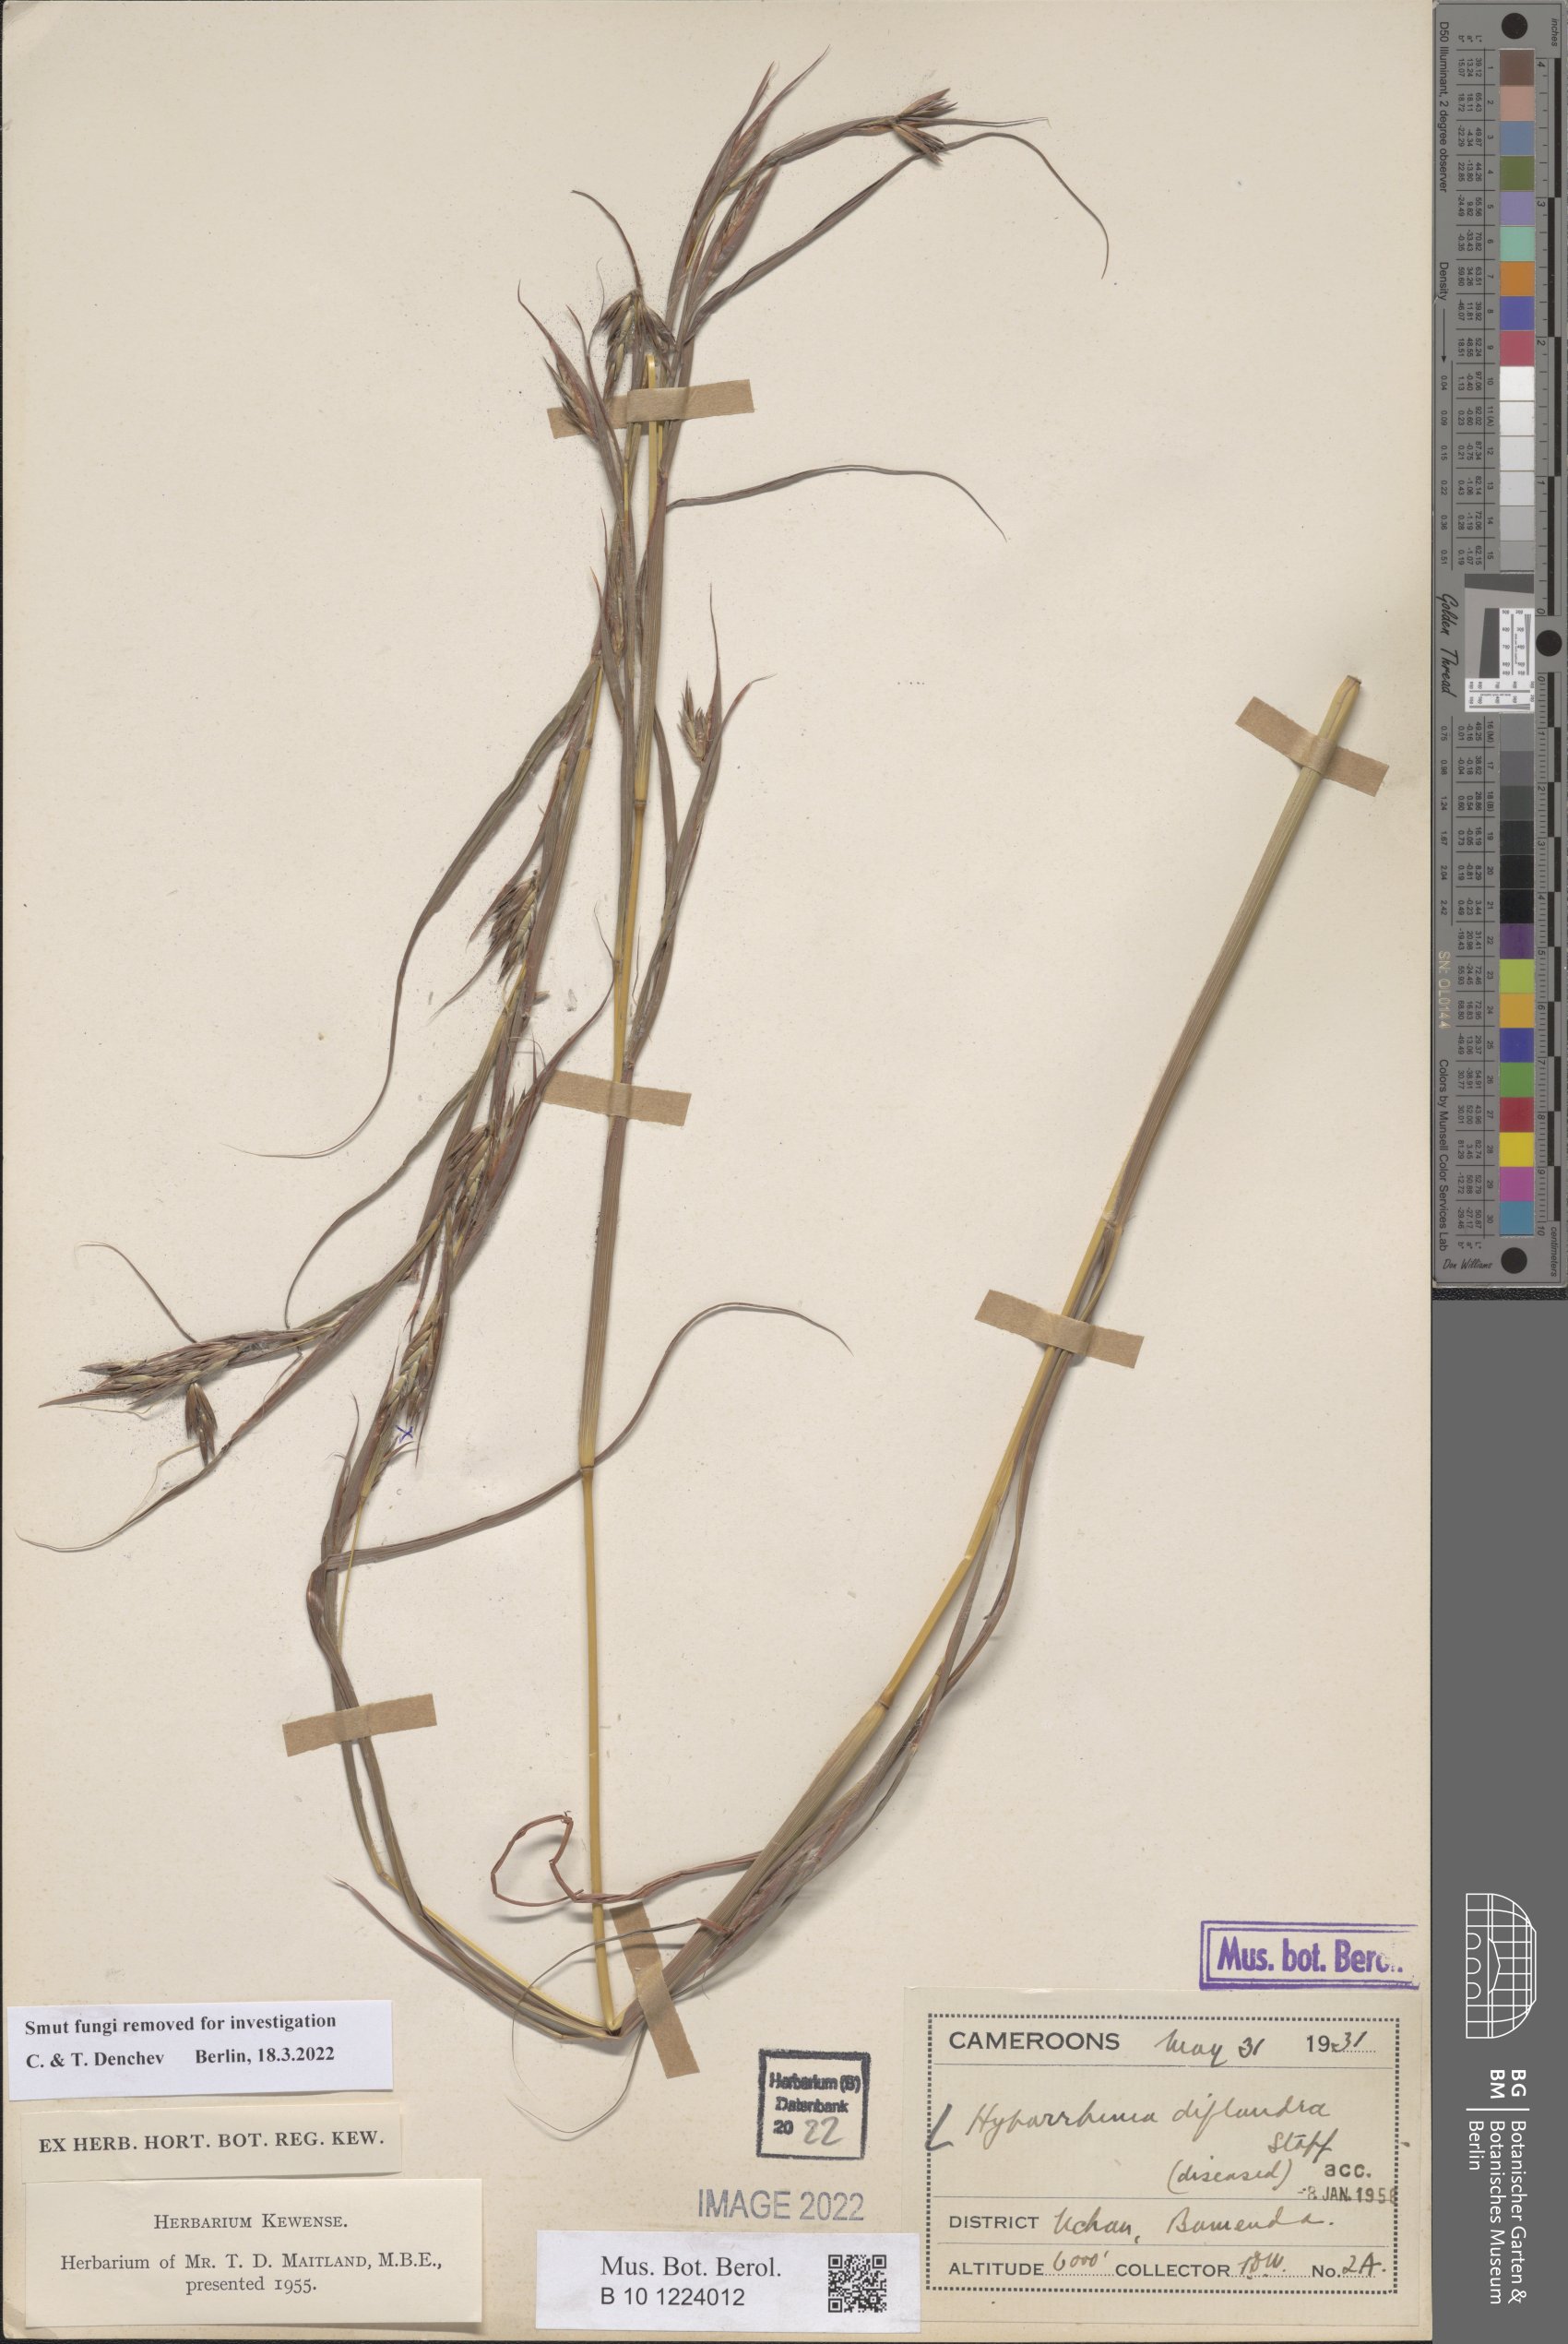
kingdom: Plantae
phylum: Tracheophyta
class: Liliopsida
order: Poales
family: Poaceae
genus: Hyparrhenia
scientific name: Hyparrhenia diplandra
